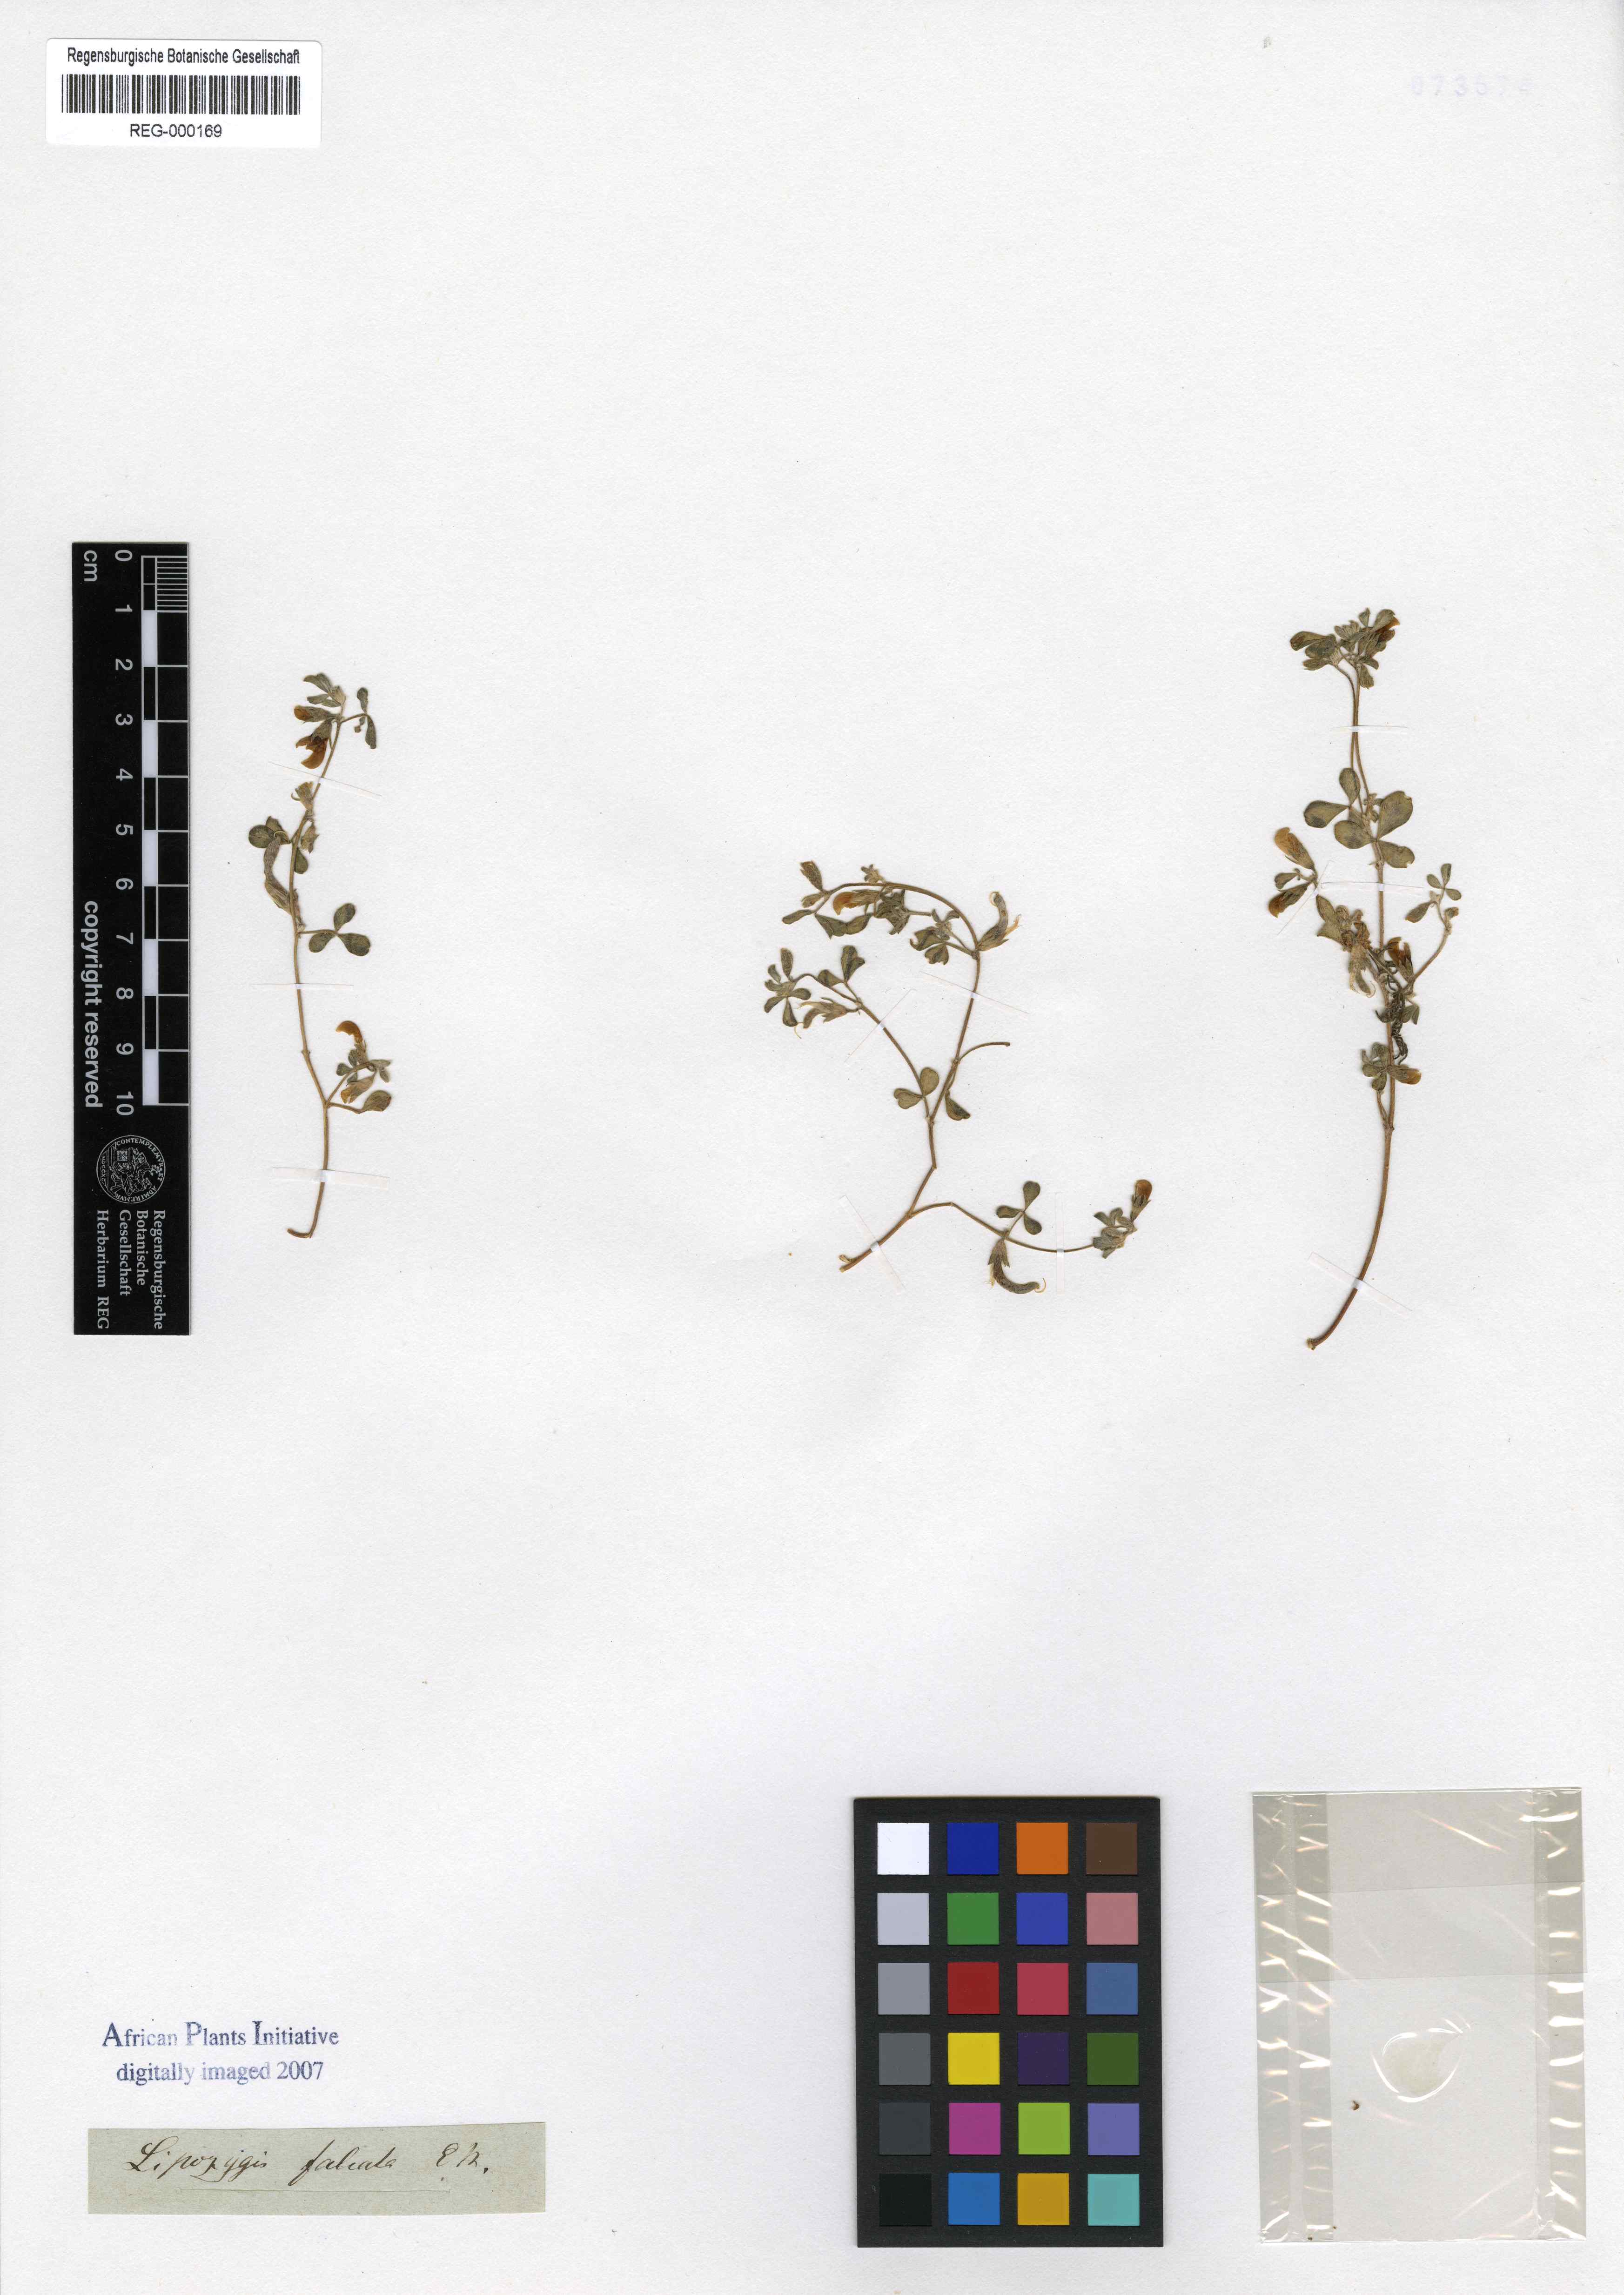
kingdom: Plantae
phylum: Tracheophyta
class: Magnoliopsida
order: Fabales
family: Fabaceae
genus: Lotononis
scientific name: Lotononis falcata
